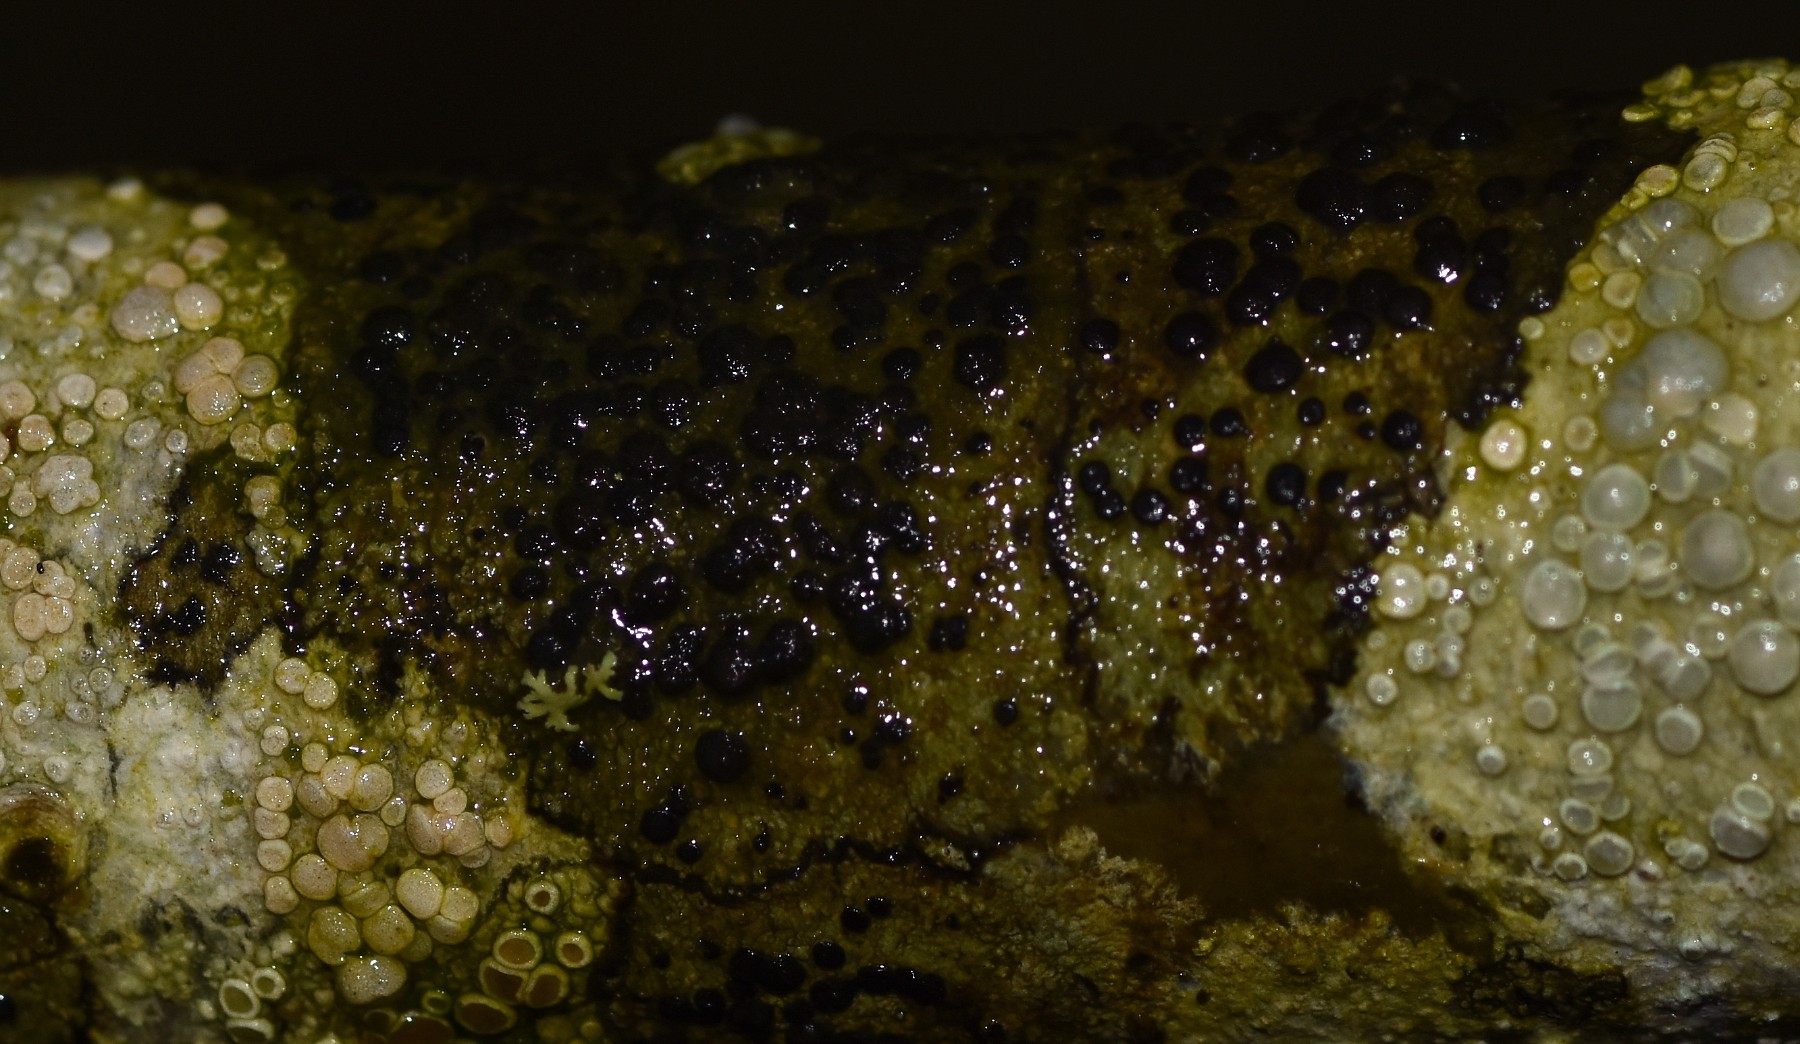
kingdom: Fungi
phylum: Ascomycota
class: Lecanoromycetes
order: Lecanorales
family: Lecanoraceae
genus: Lecidella
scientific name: Lecidella elaeochroma
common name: grågrøn skivelav
